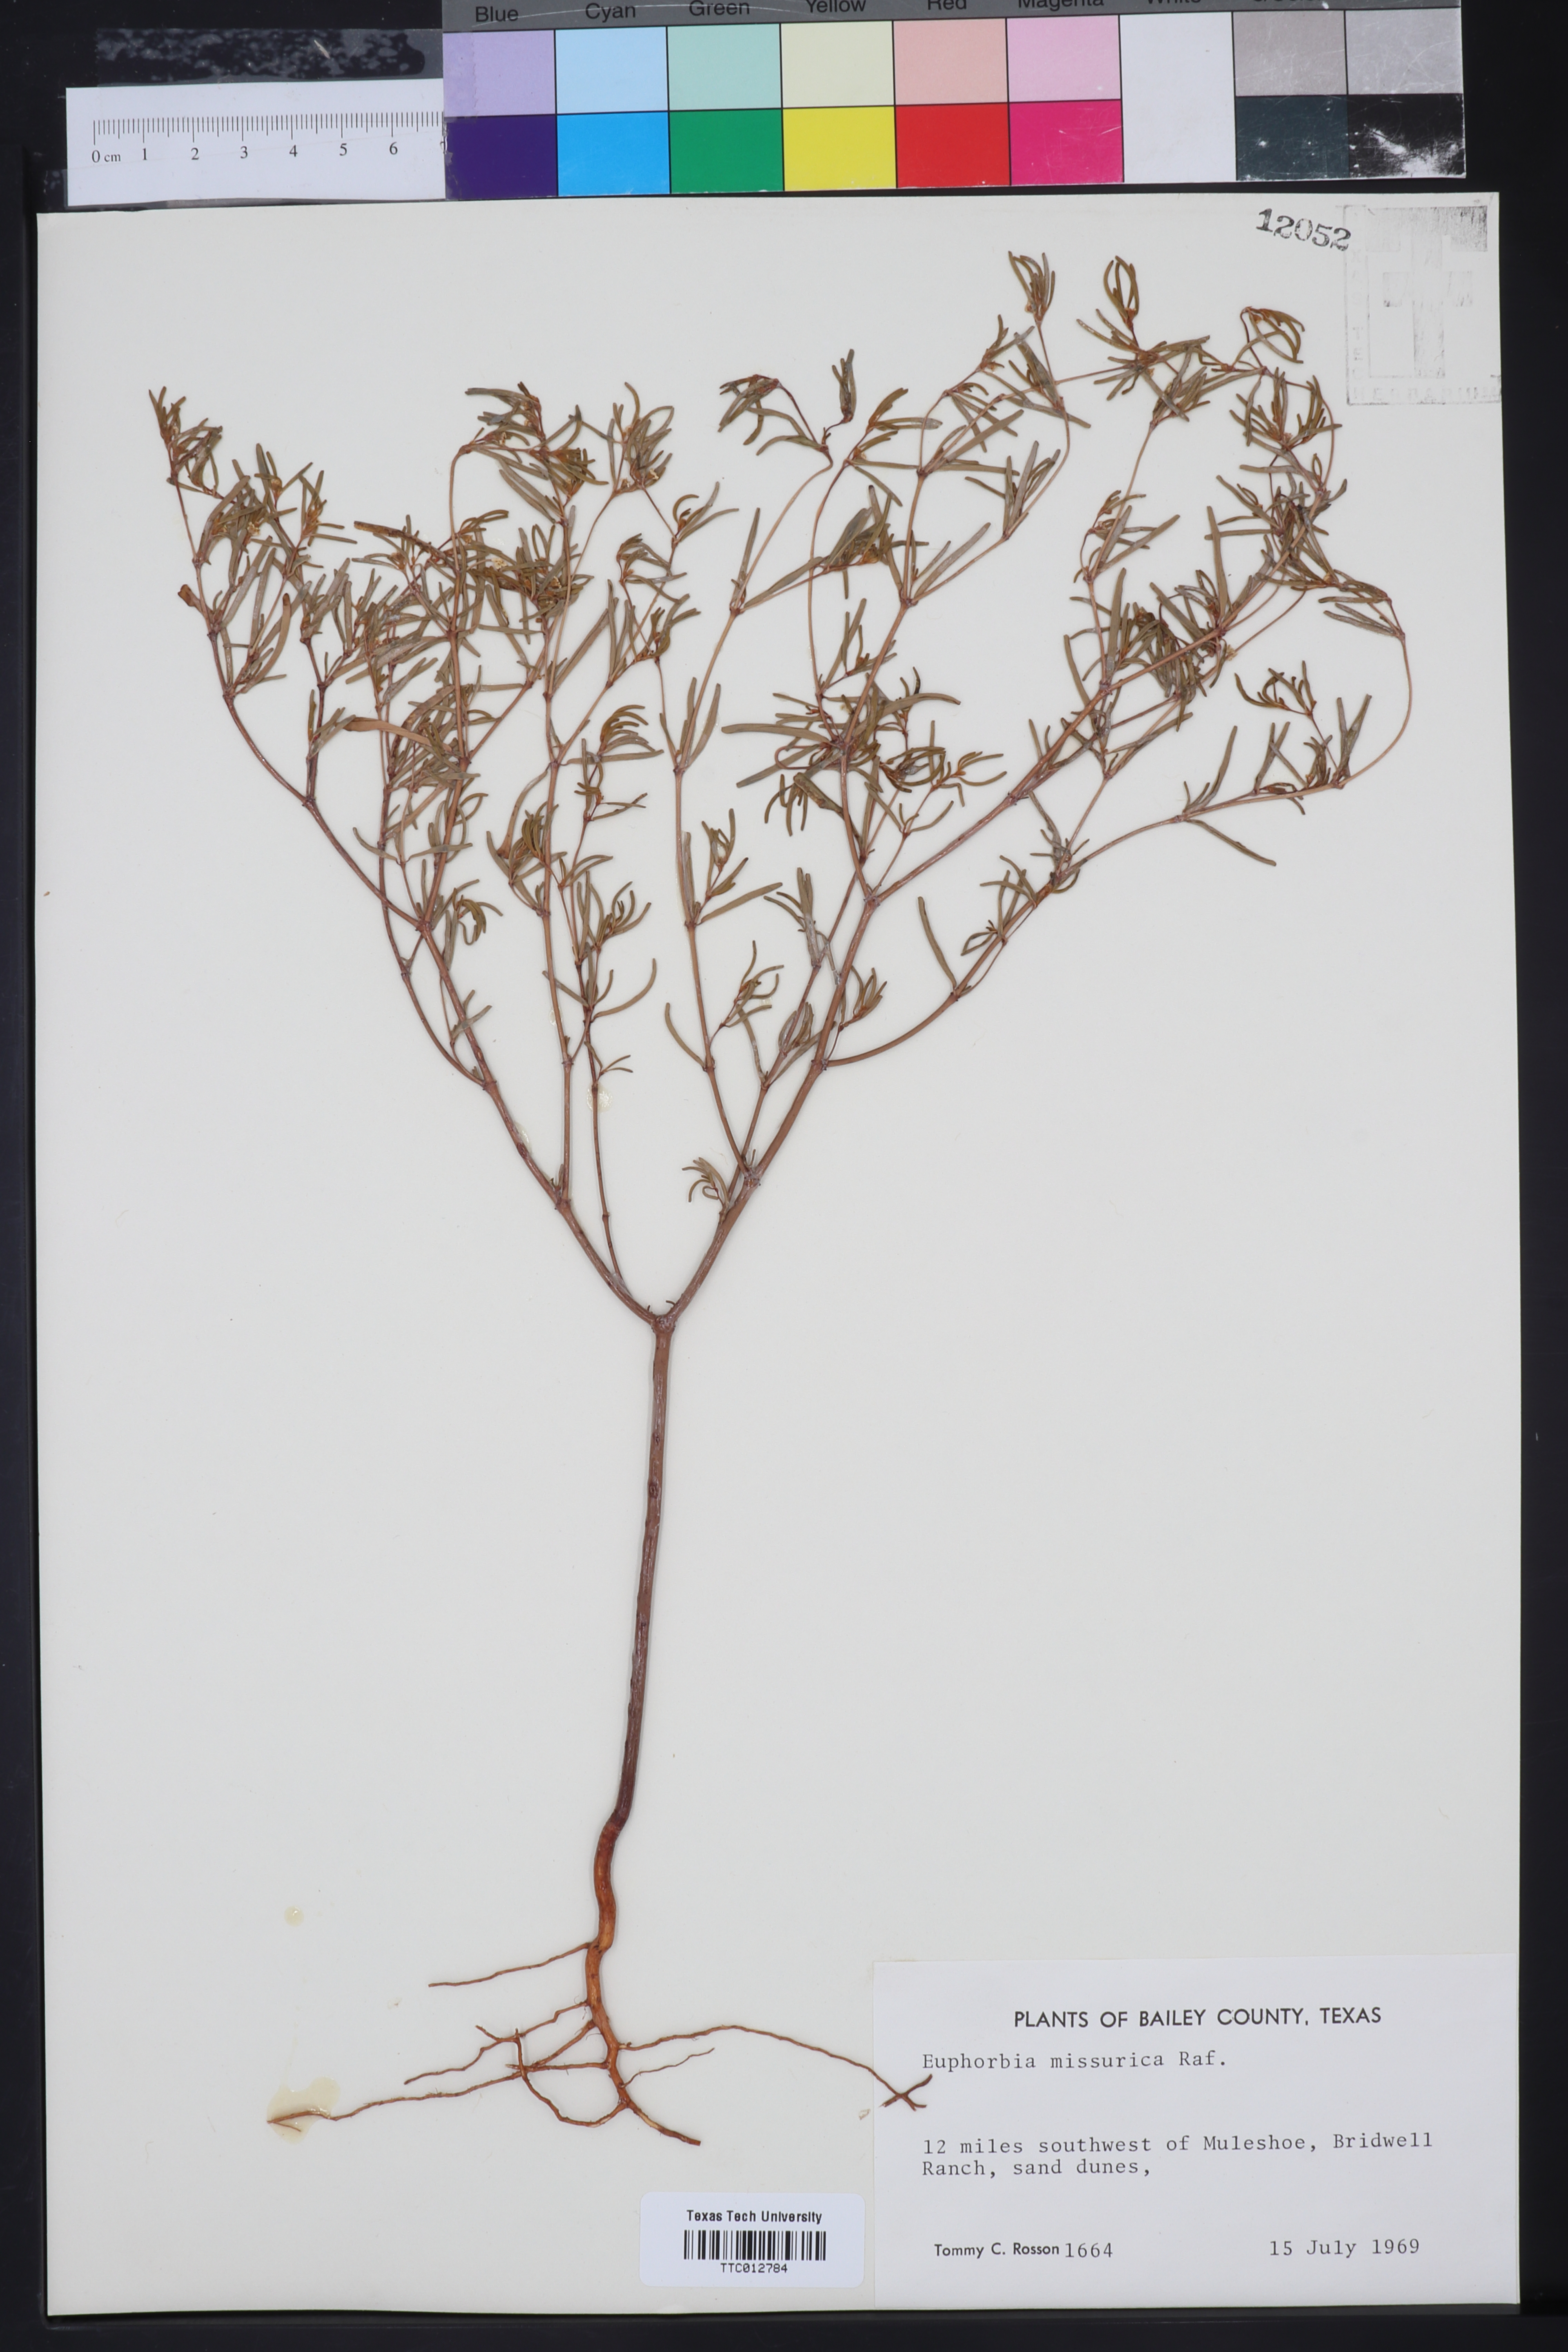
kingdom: Plantae
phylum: Tracheophyta
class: Magnoliopsida
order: Malpighiales
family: Euphorbiaceae
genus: Euphorbia
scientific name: Euphorbia missurica
